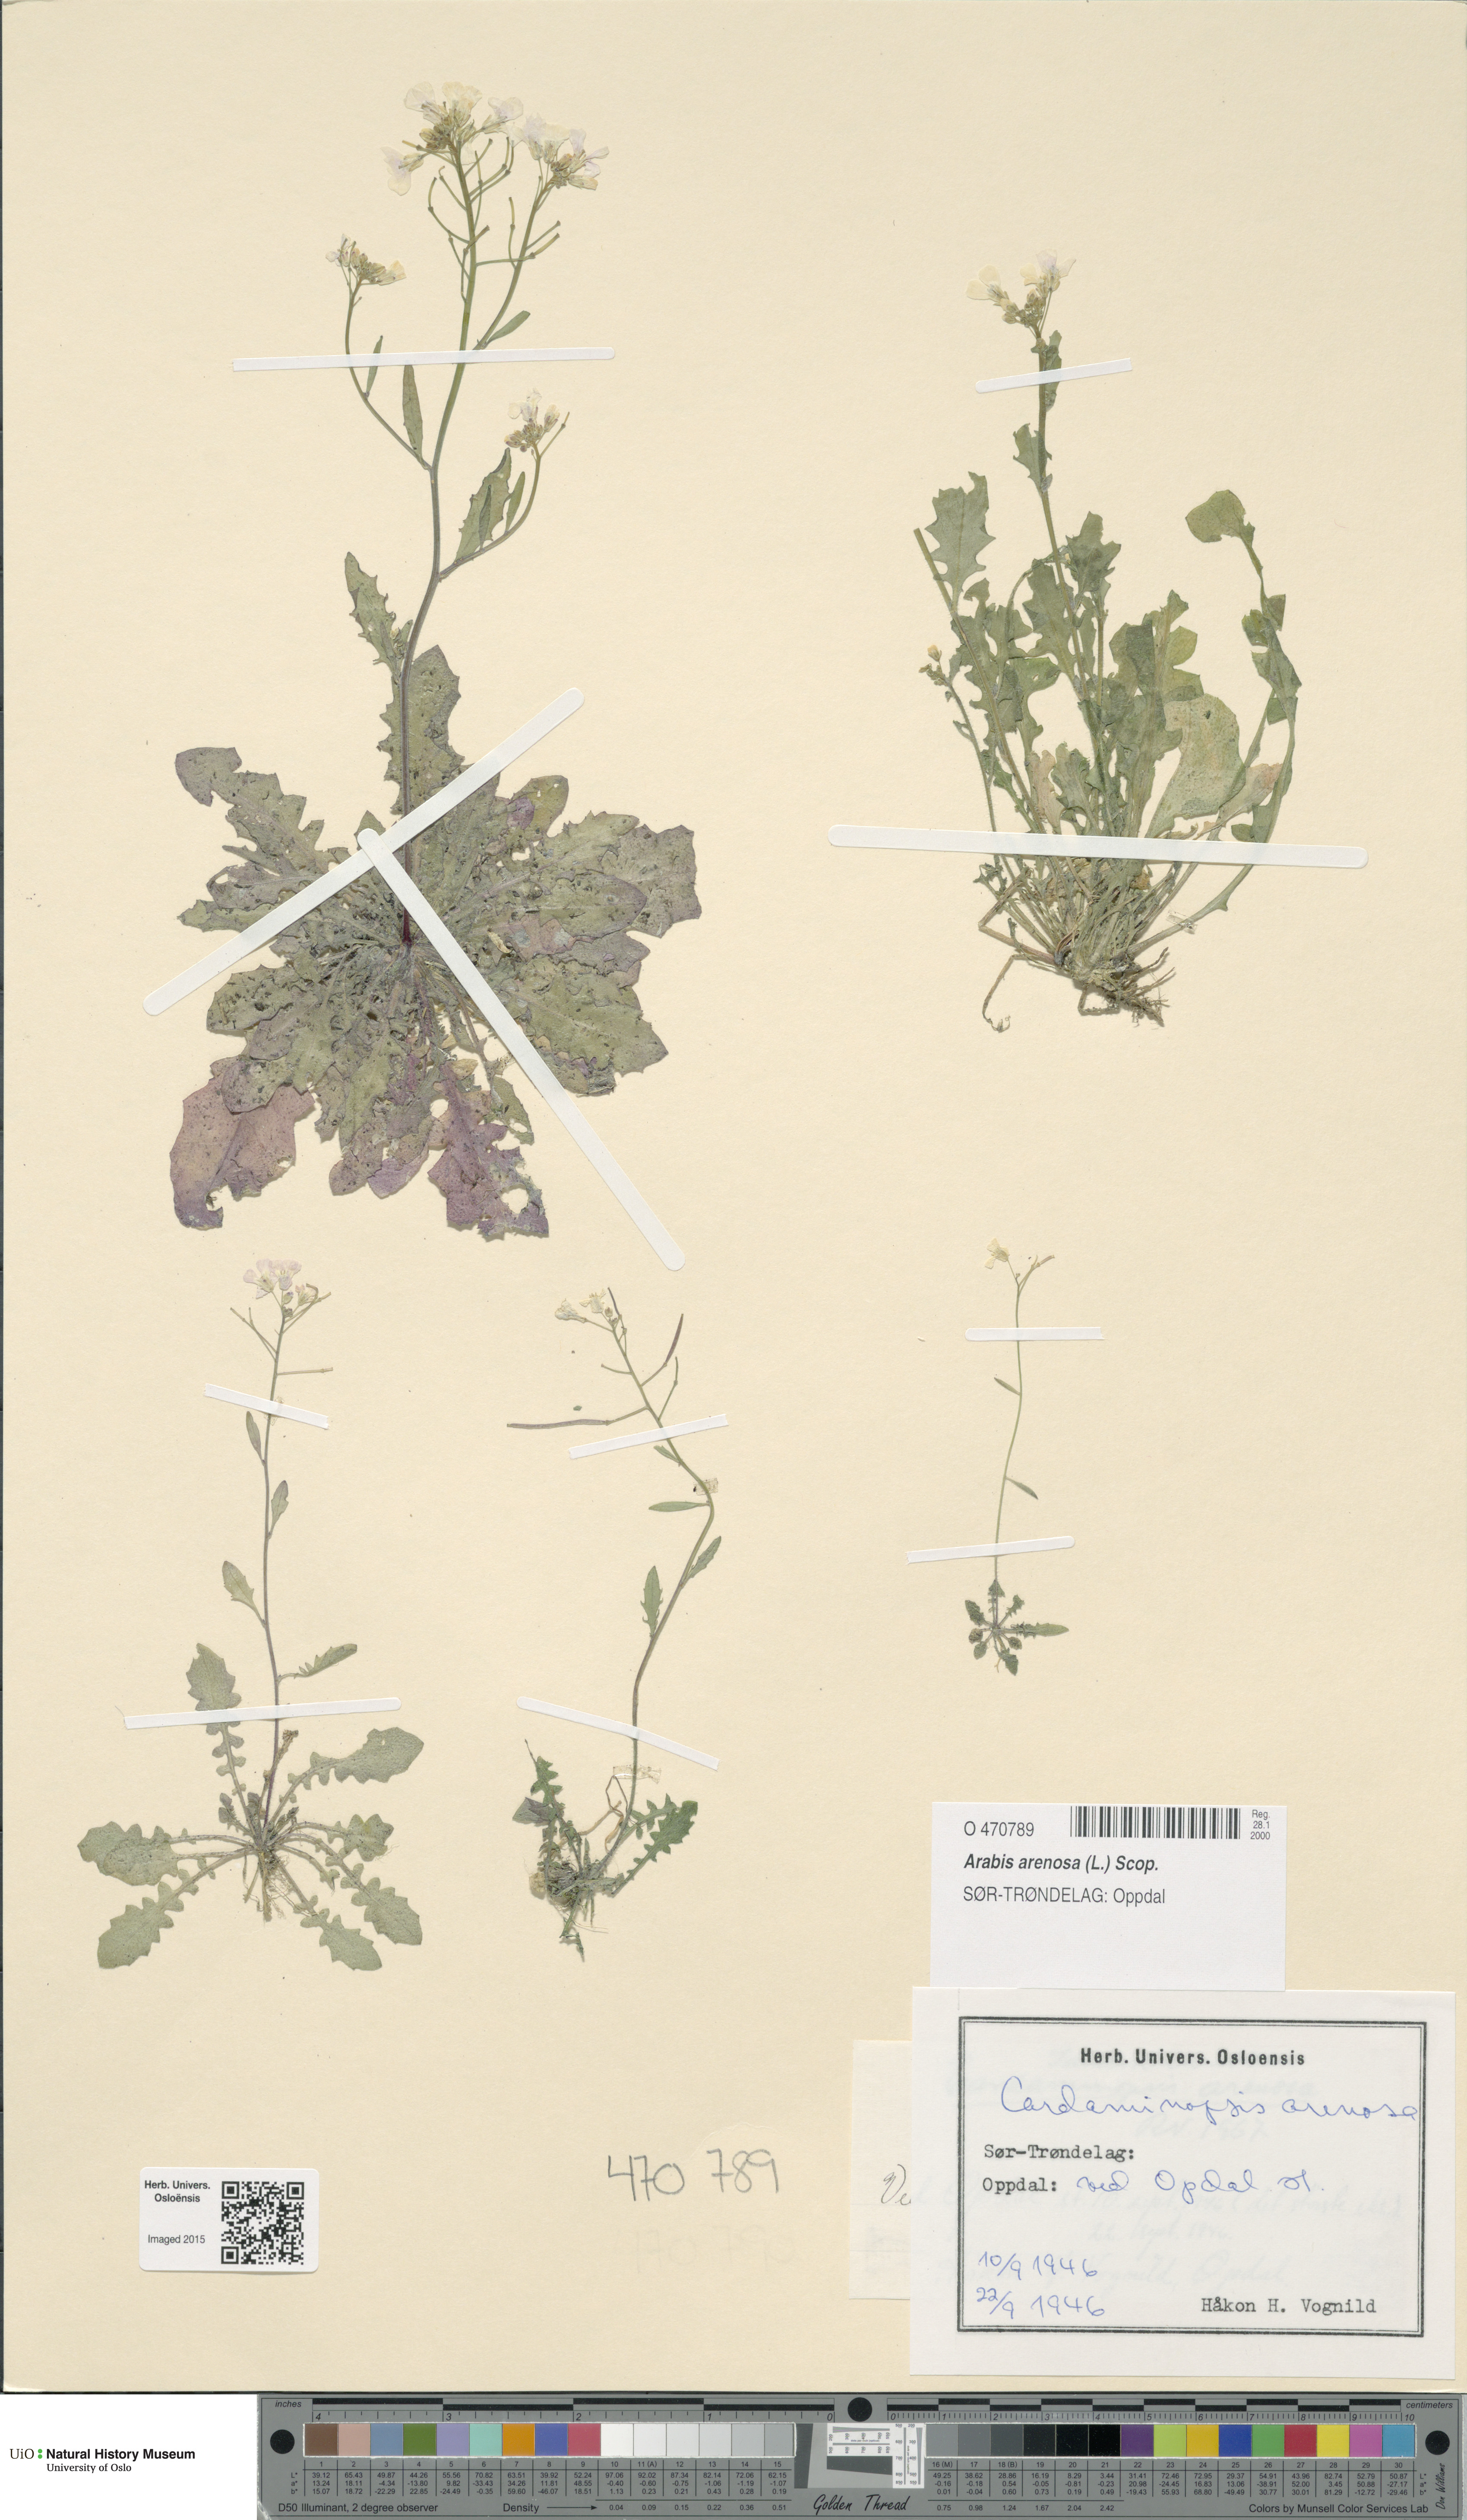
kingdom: Plantae
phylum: Tracheophyta
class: Magnoliopsida
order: Brassicales
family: Brassicaceae
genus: Arabidopsis
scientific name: Arabidopsis arenosa
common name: Sand rock-cress
